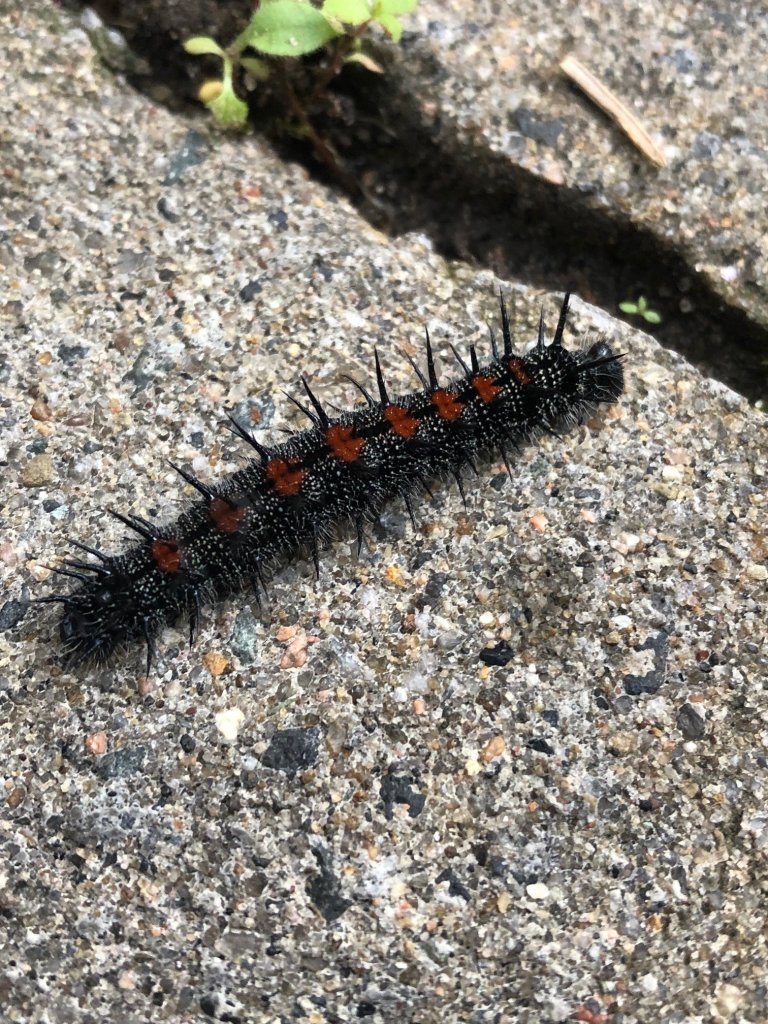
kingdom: Animalia
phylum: Arthropoda
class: Insecta
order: Lepidoptera
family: Nymphalidae
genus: Nymphalis
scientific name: Nymphalis antiopa
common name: Mourning Cloak
